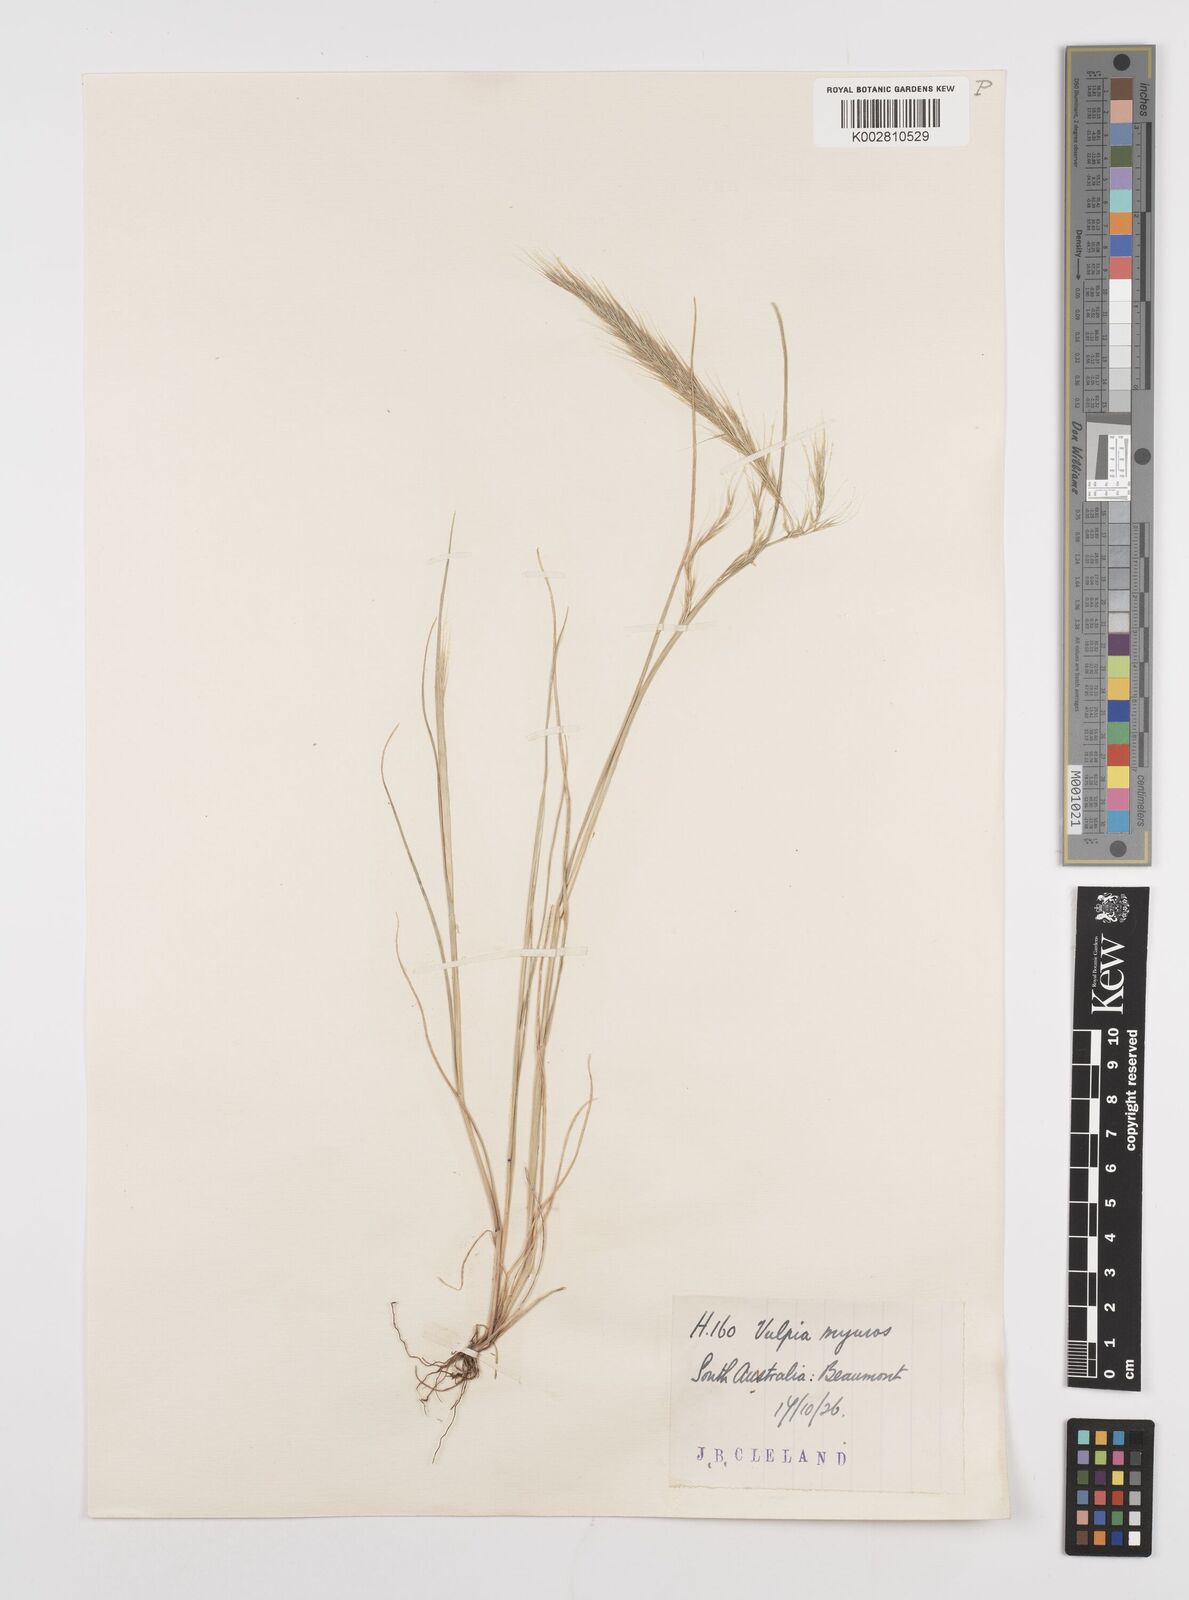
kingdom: Plantae
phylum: Tracheophyta
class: Liliopsida
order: Poales
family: Poaceae
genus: Festuca
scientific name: Festuca myuros
